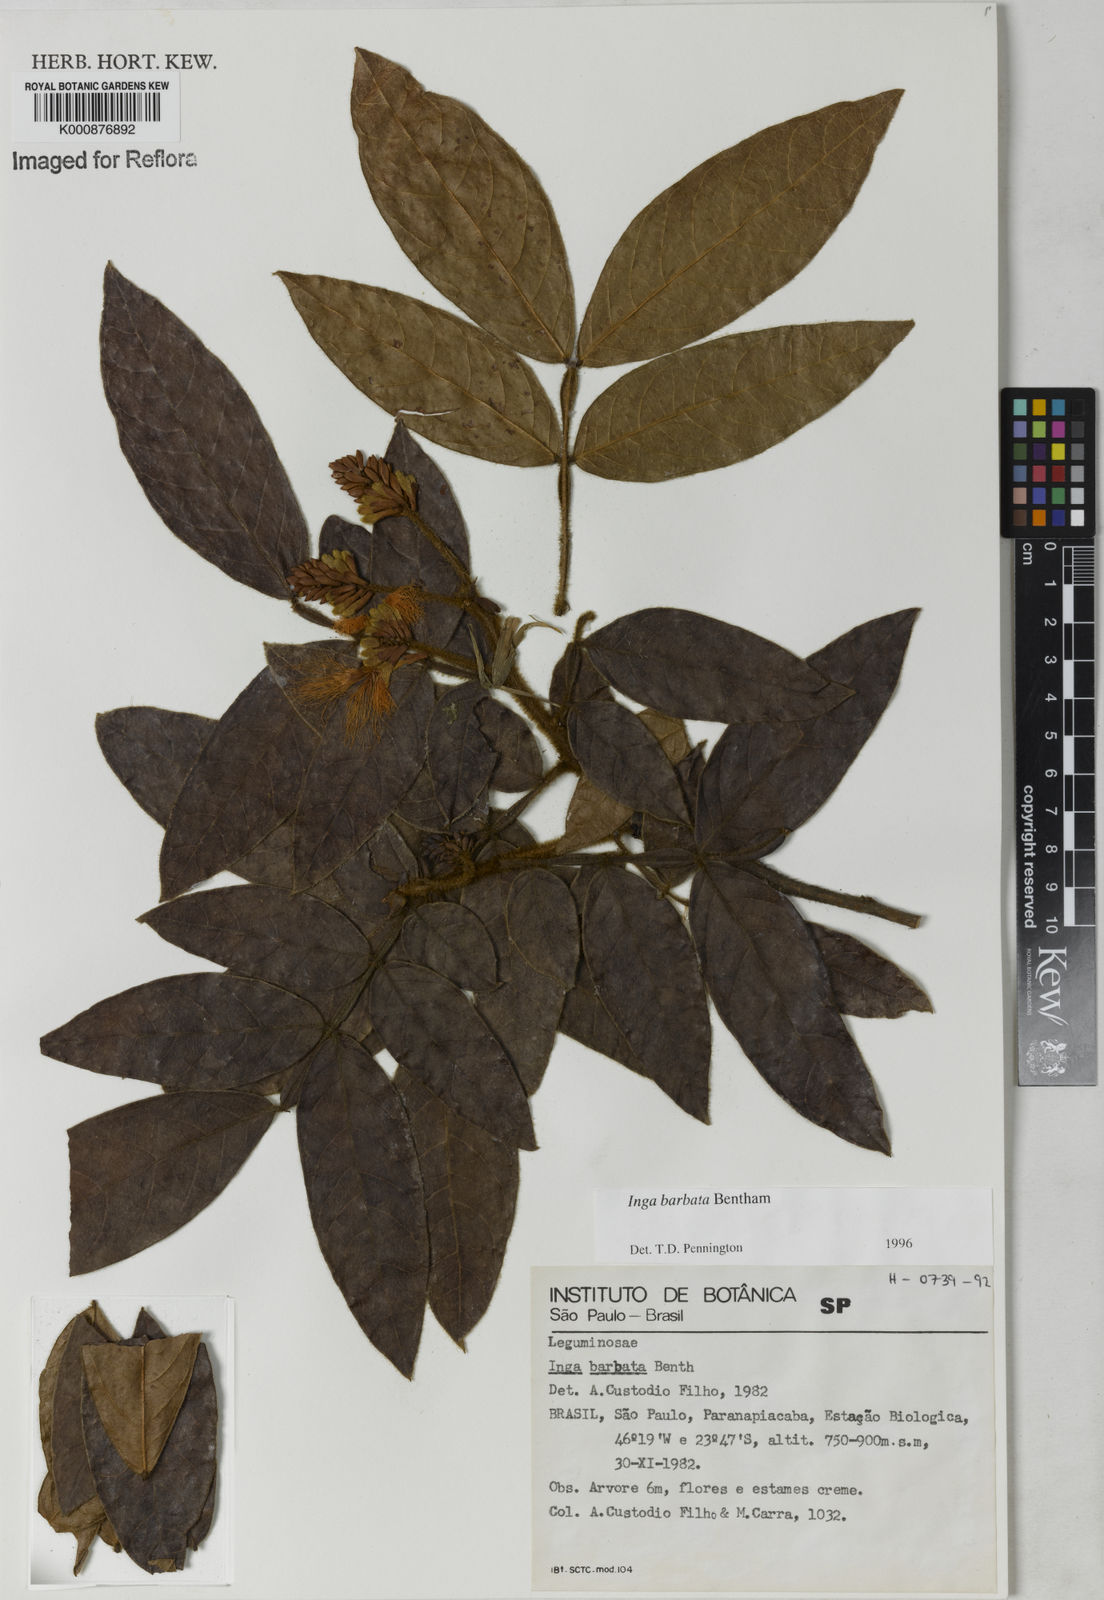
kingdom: Plantae
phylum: Tracheophyta
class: Magnoliopsida
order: Fabales
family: Fabaceae
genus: Inga
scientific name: Inga barbata
